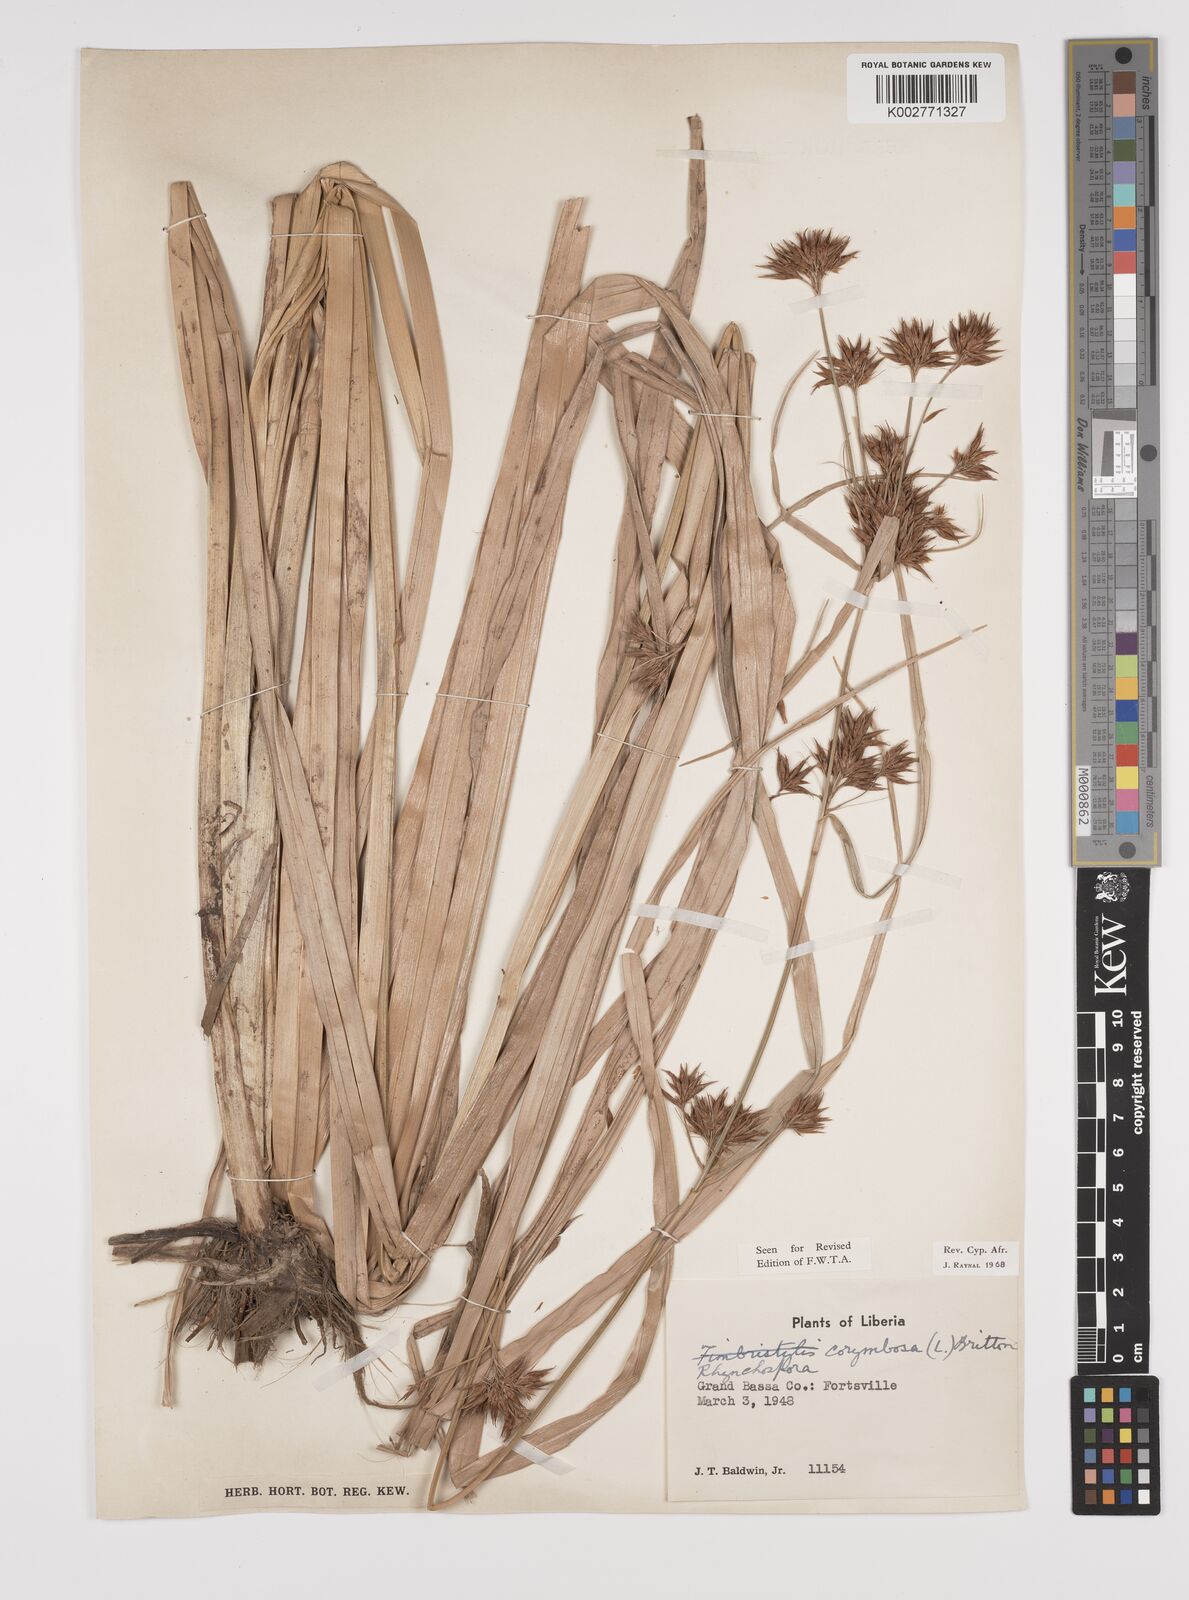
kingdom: Plantae
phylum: Tracheophyta
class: Liliopsida
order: Poales
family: Cyperaceae
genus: Rhynchospora
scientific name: Rhynchospora corymbosa
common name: Golden beak sedge
